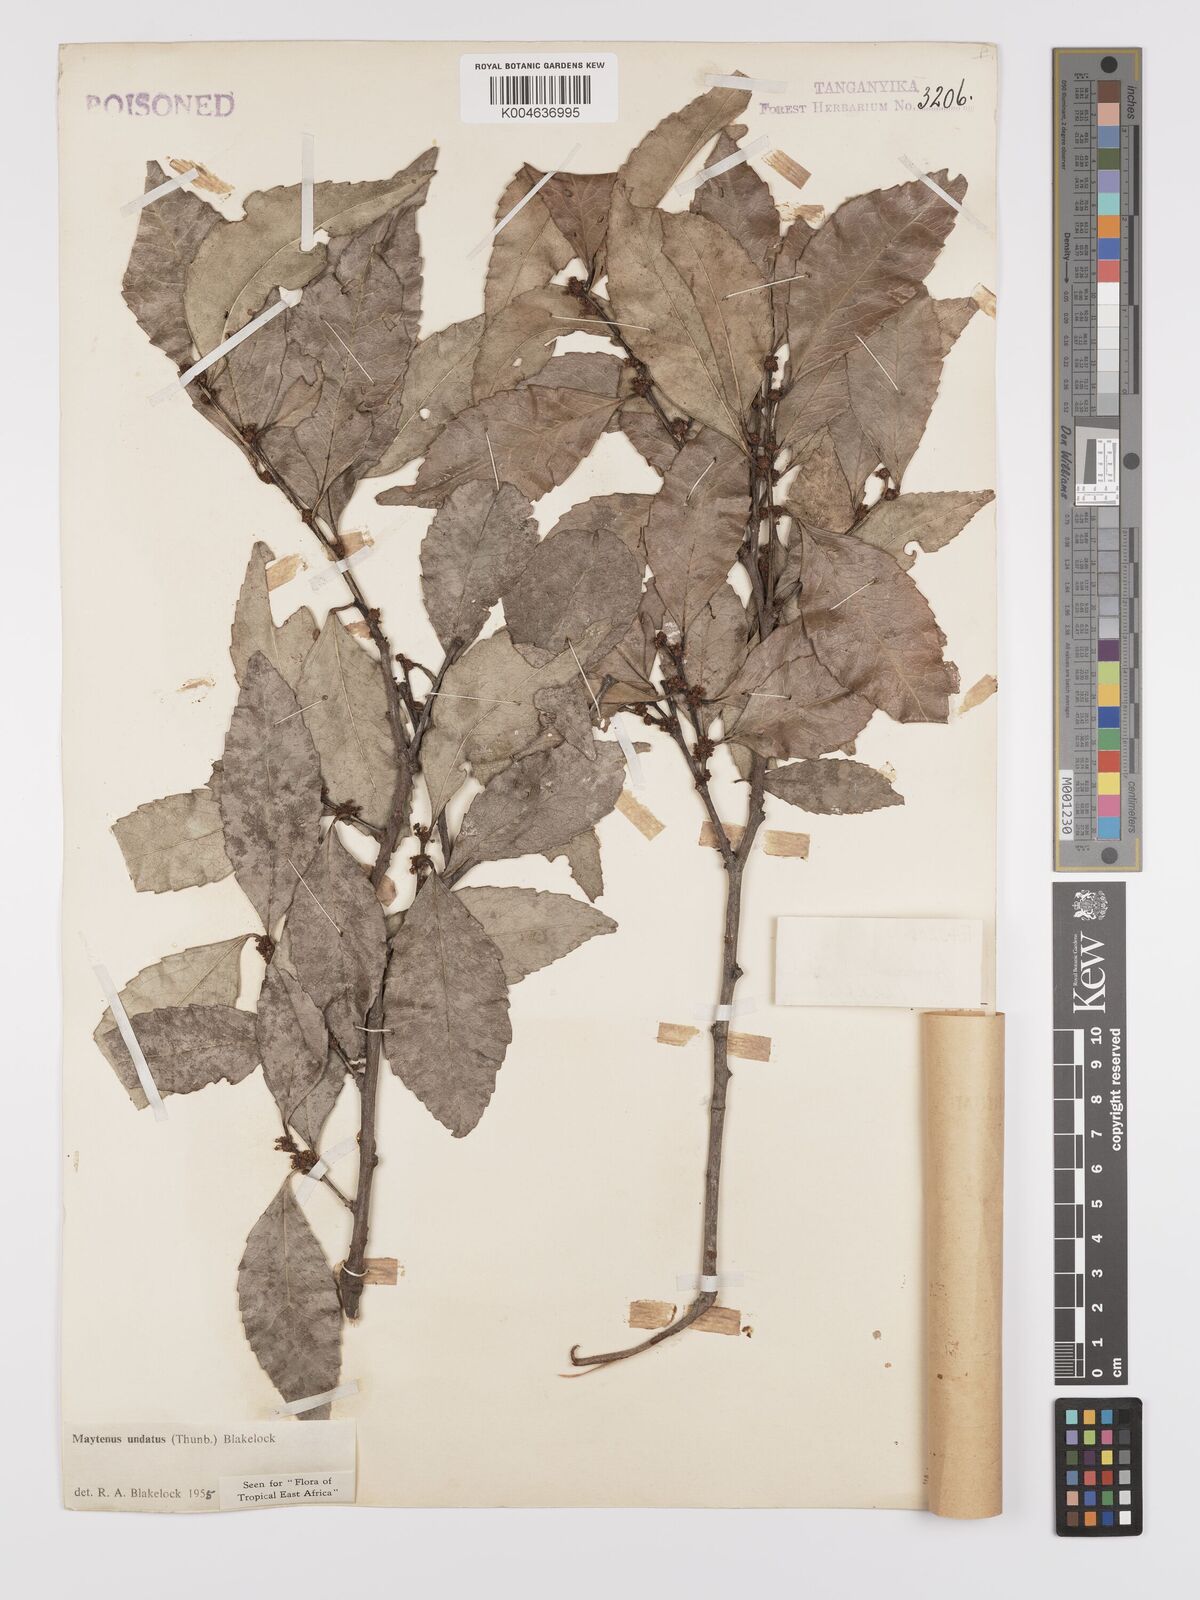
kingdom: Plantae
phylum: Tracheophyta
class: Magnoliopsida
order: Celastrales
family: Celastraceae
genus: Gymnosporia
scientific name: Gymnosporia undata
